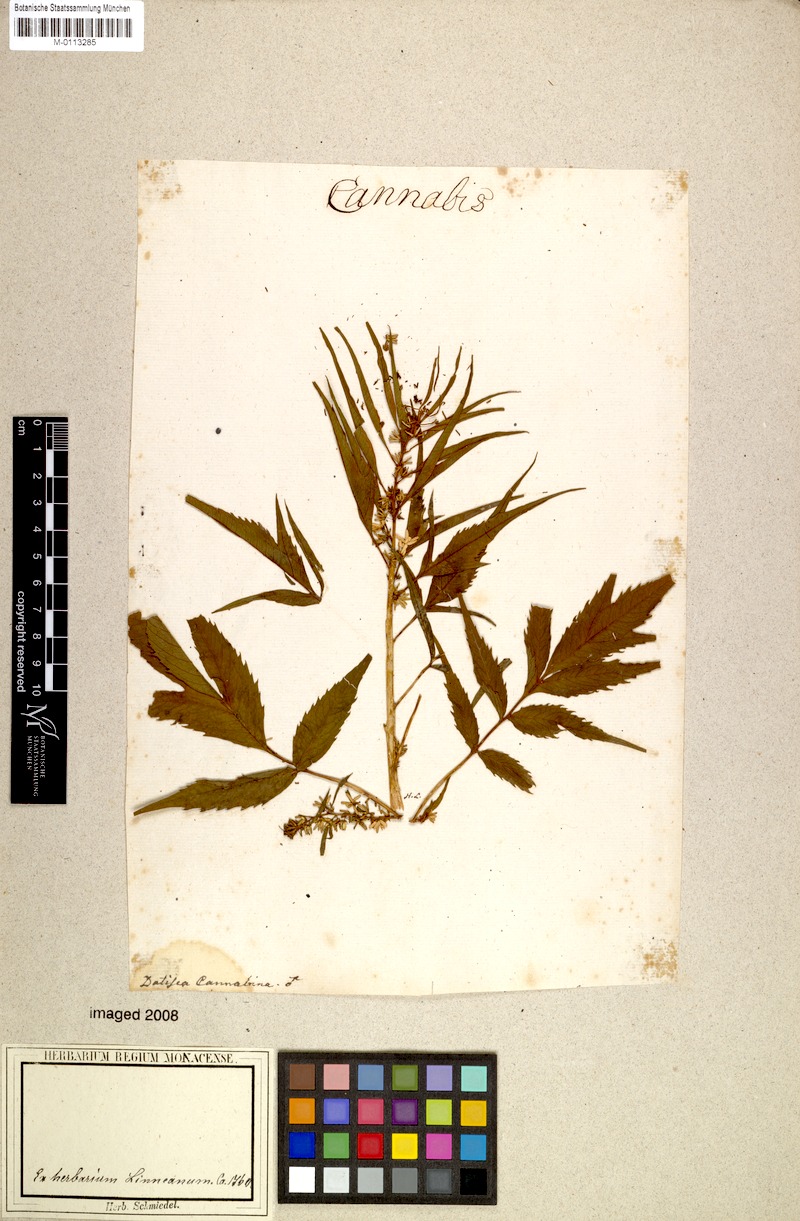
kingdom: Plantae
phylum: Tracheophyta
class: Magnoliopsida
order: Cucurbitales
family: Datiscaceae
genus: Datisca
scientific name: Datisca cannabina
